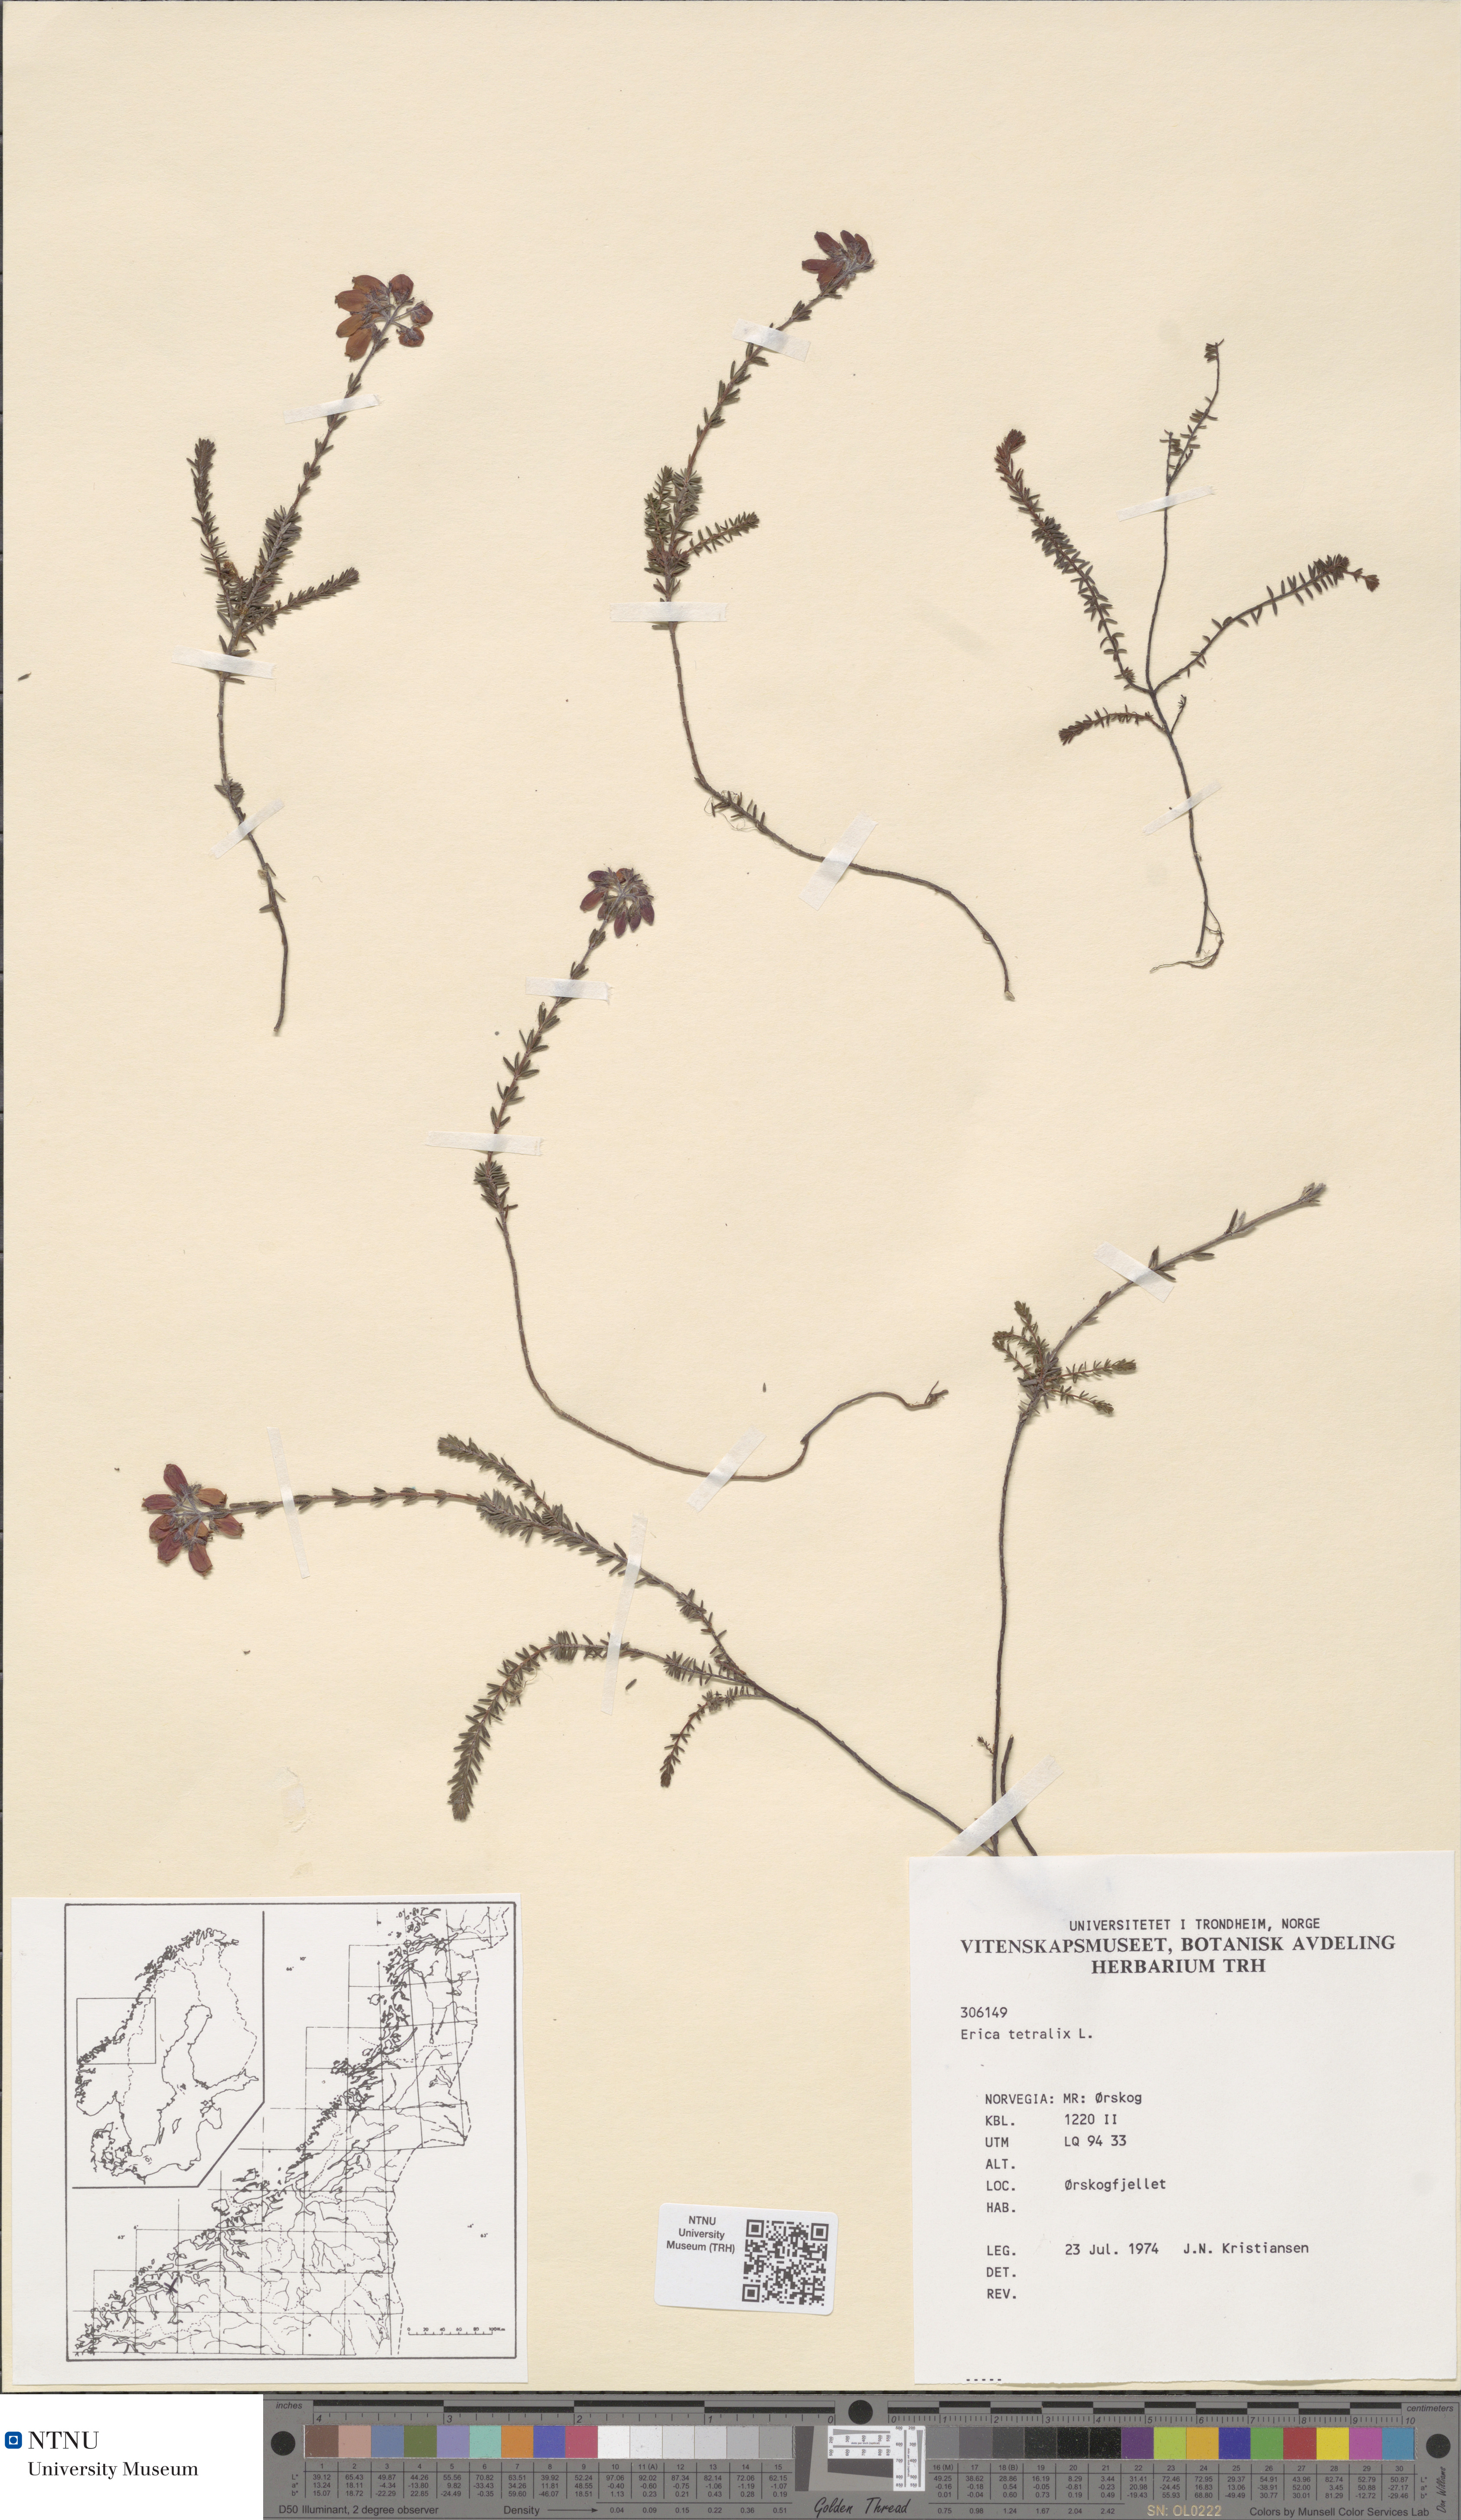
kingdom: Plantae
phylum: Tracheophyta
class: Magnoliopsida
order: Ericales
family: Ericaceae
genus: Erica
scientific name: Erica tetralix
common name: Cross-leaved heath
